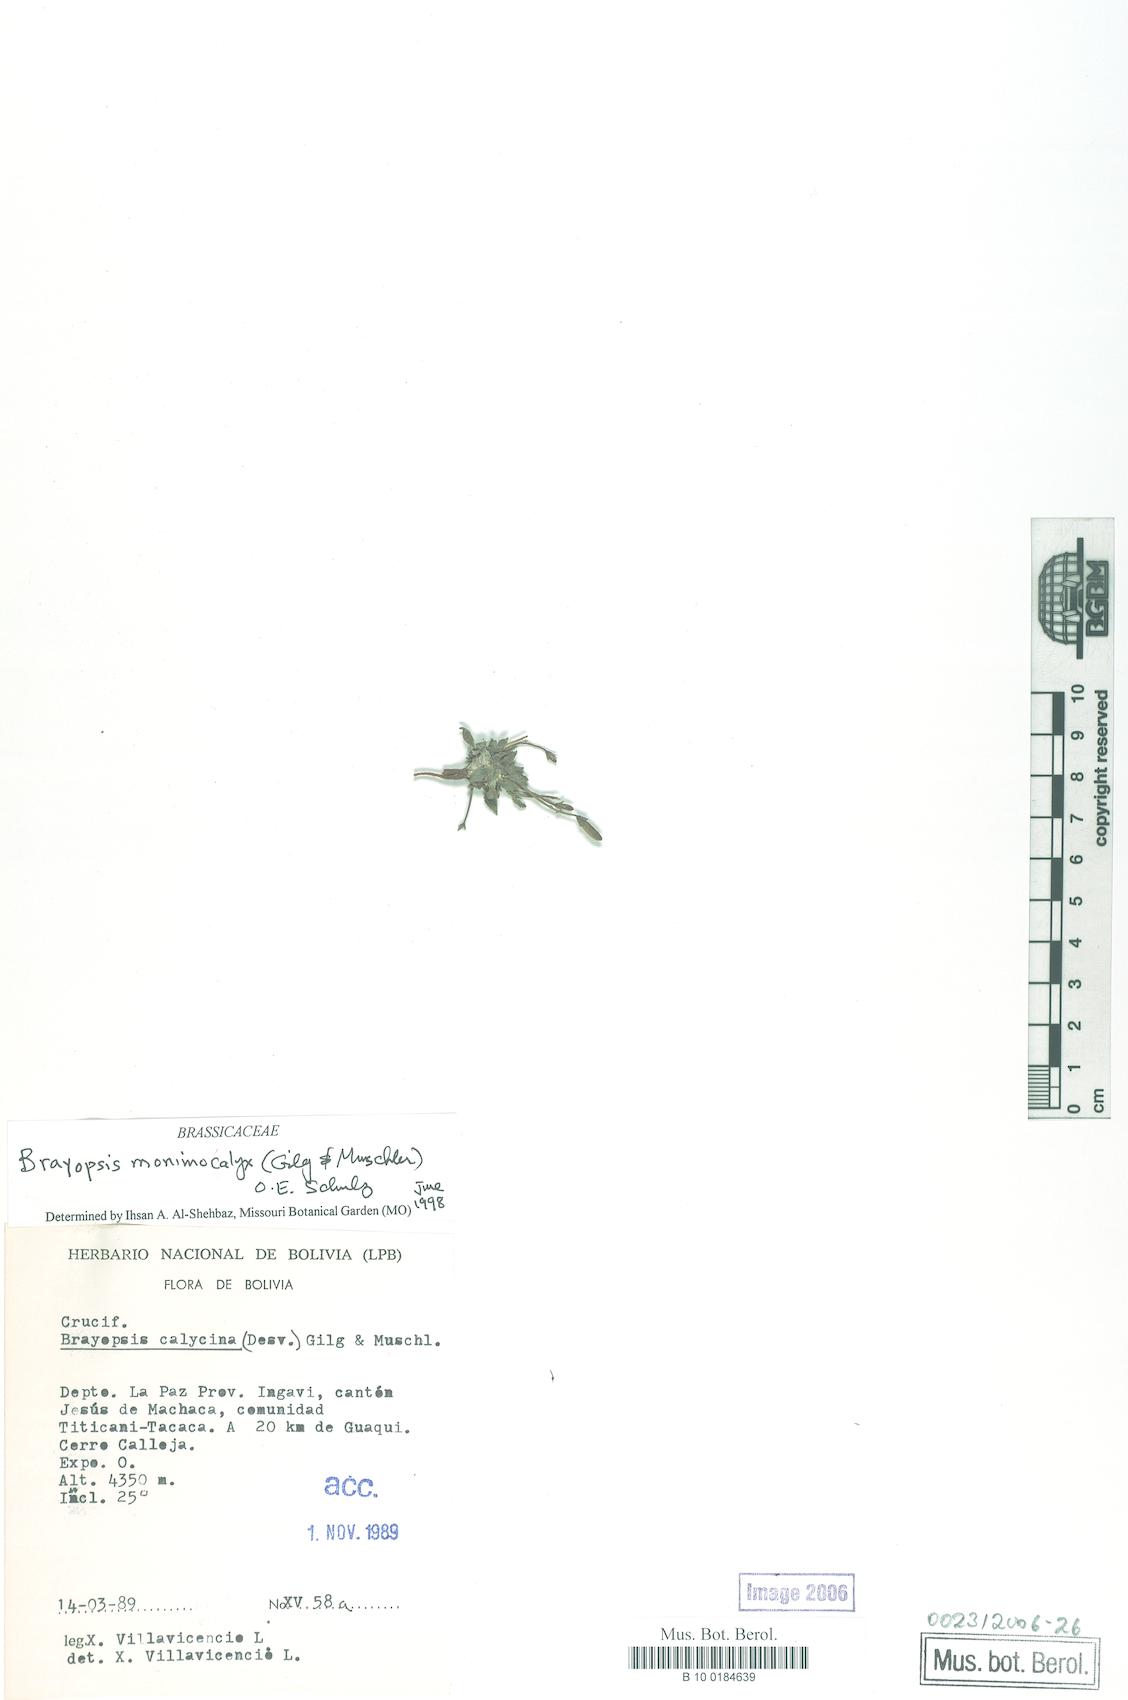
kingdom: Plantae
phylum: Tracheophyta
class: Magnoliopsida
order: Brassicales
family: Brassicaceae
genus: Brayopsis
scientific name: Brayopsis monimocalyx
